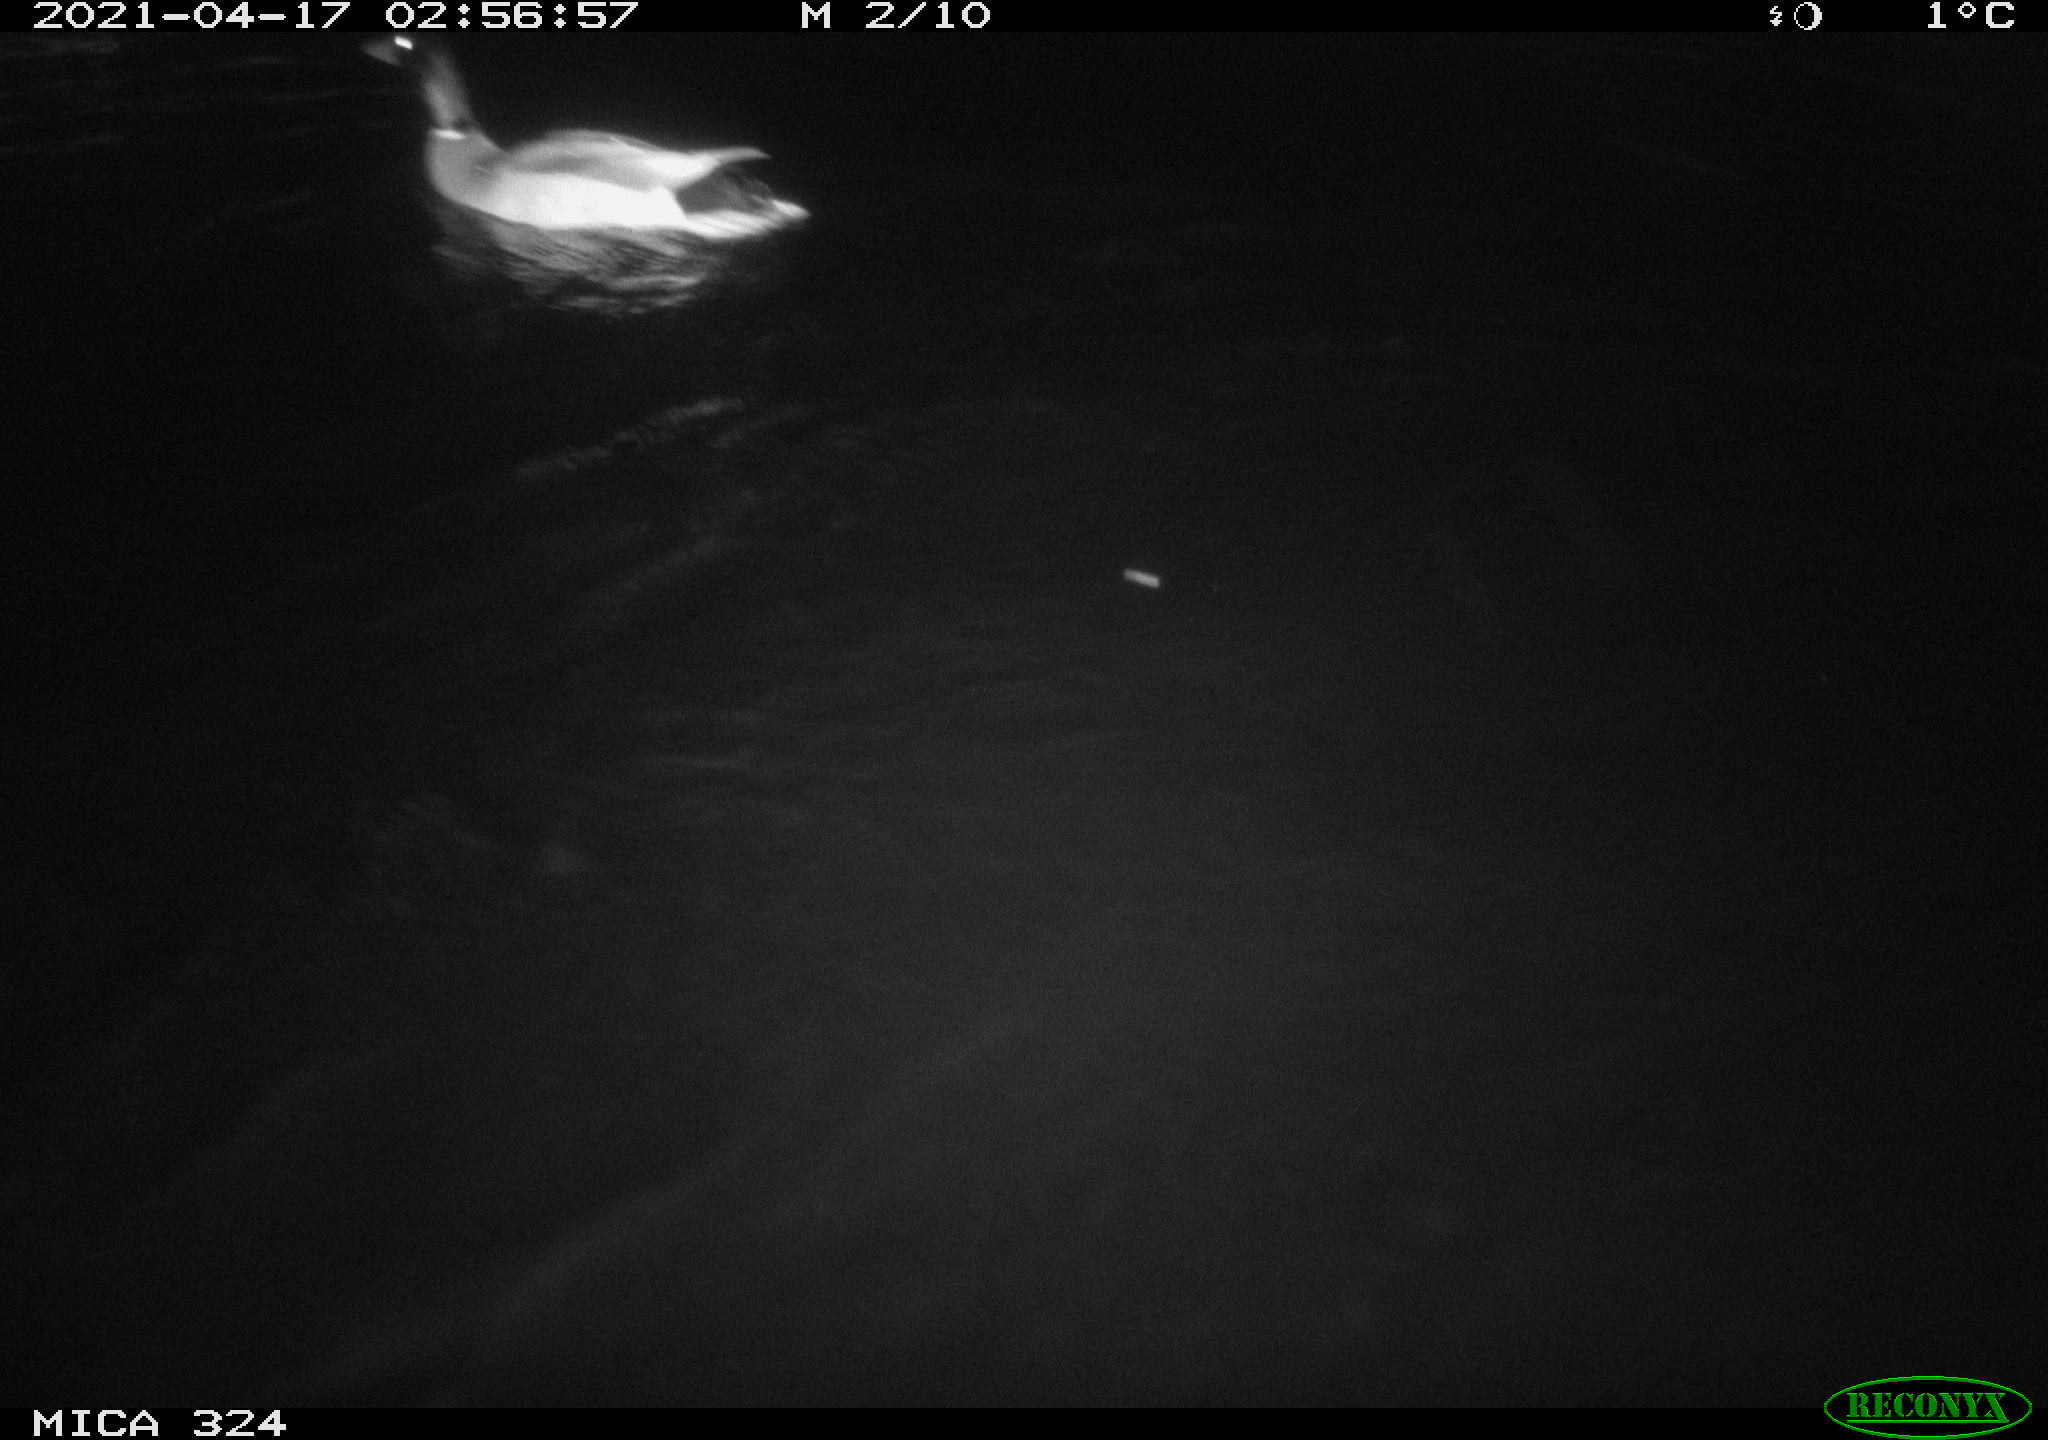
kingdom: Animalia
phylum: Chordata
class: Aves
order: Anseriformes
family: Anatidae
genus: Anas
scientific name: Anas platyrhynchos
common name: Mallard
